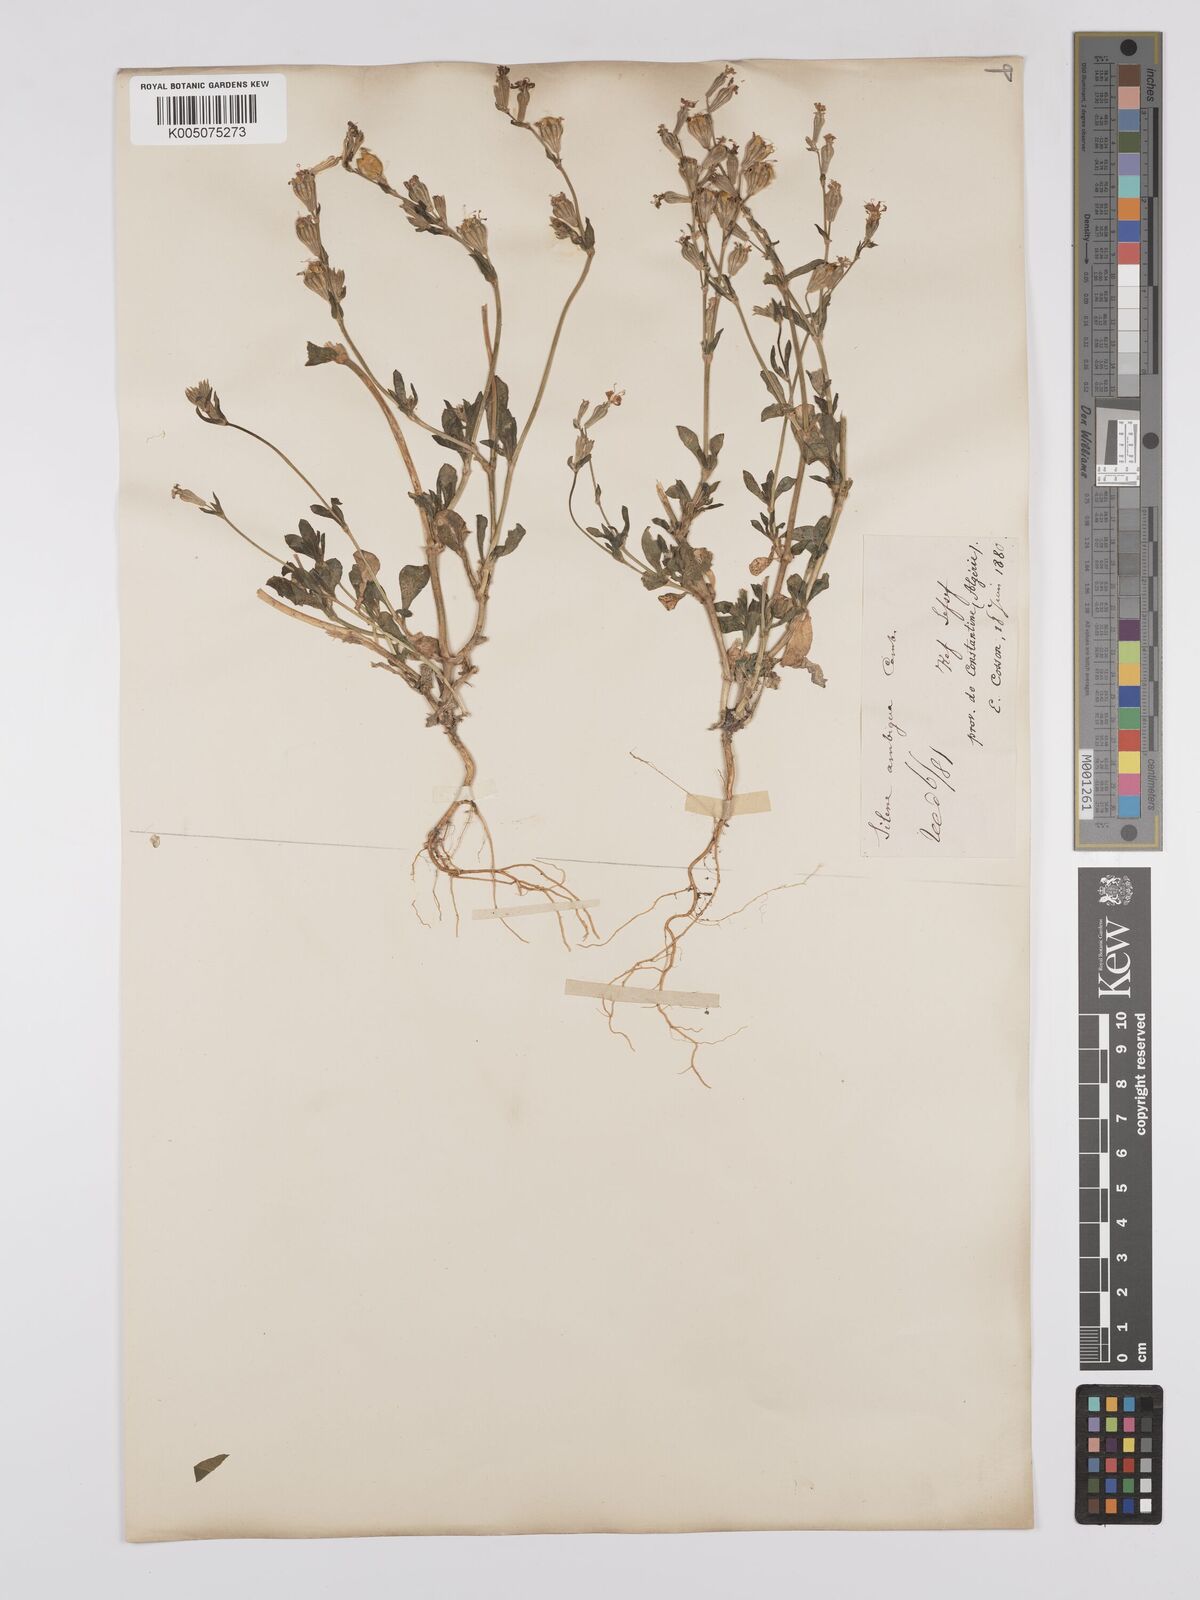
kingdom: Plantae
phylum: Tracheophyta
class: Magnoliopsida
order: Caryophyllales
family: Caryophyllaceae
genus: Silene
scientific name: Silene secundiflora
